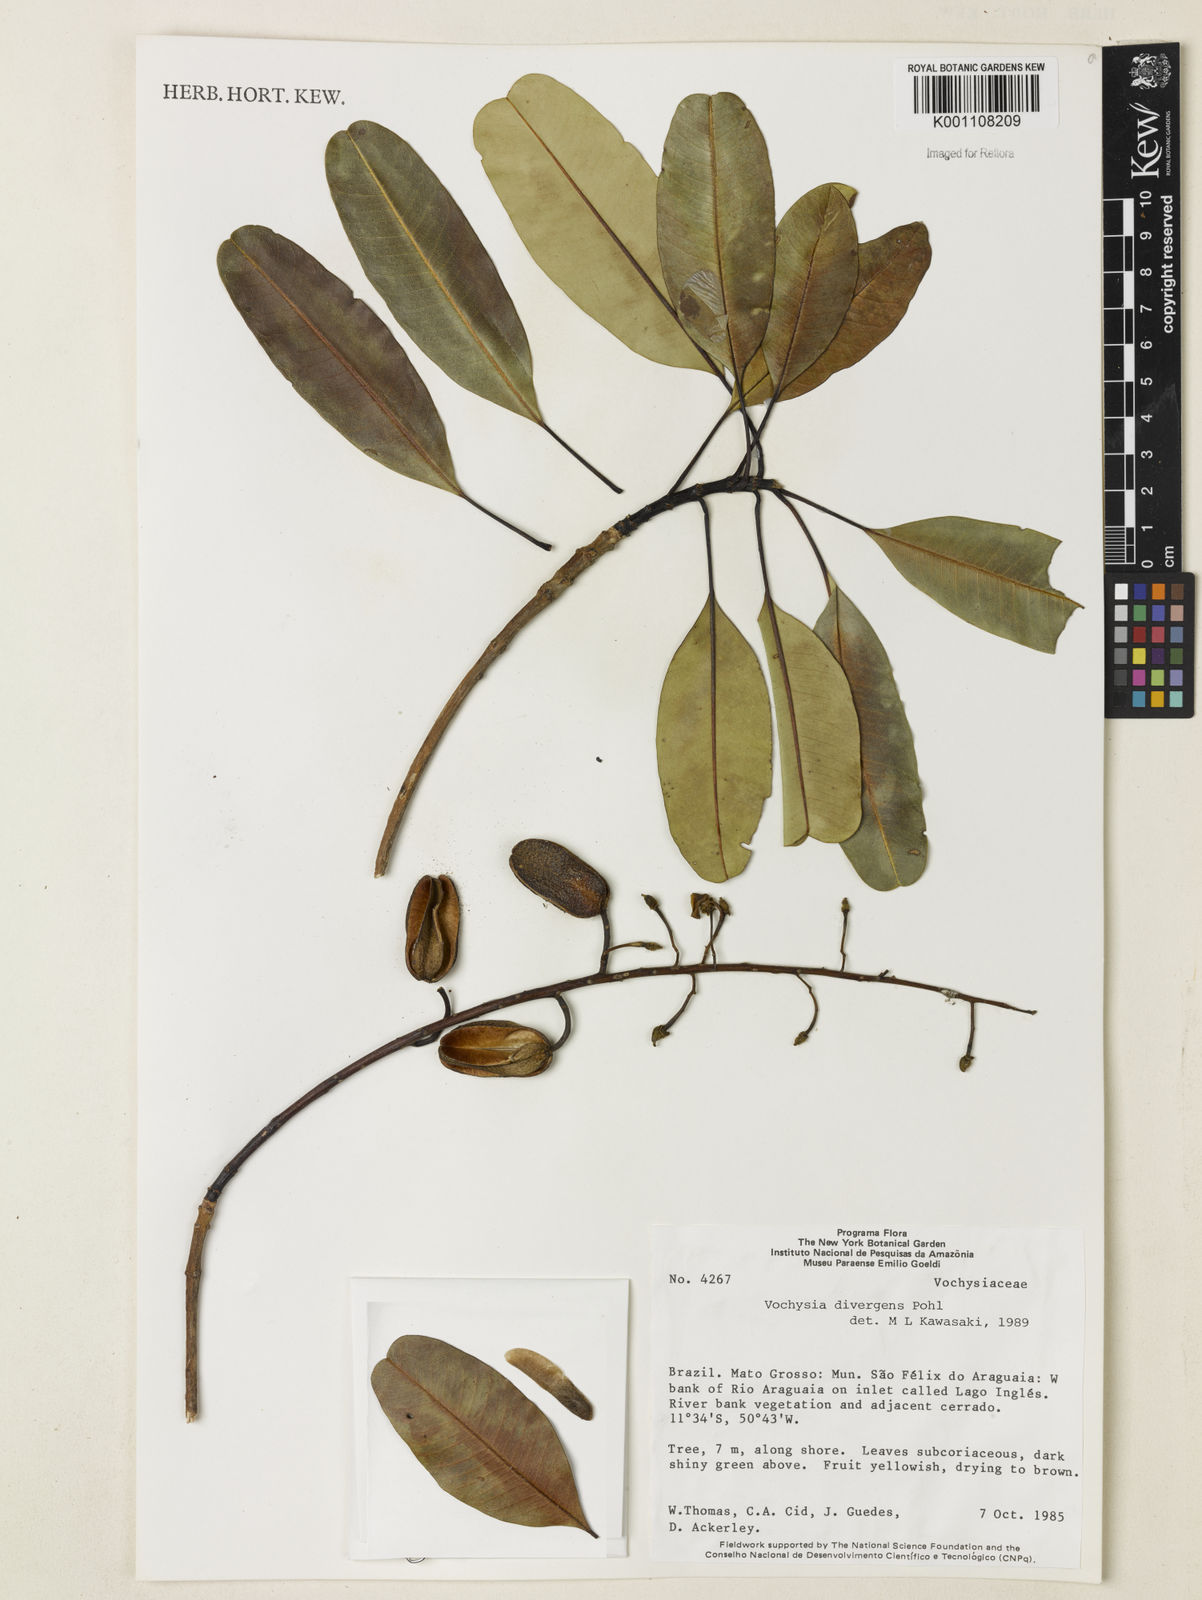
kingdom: Plantae
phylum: Tracheophyta
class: Magnoliopsida
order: Myrtales
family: Vochysiaceae
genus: Vochysia
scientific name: Vochysia divergens
